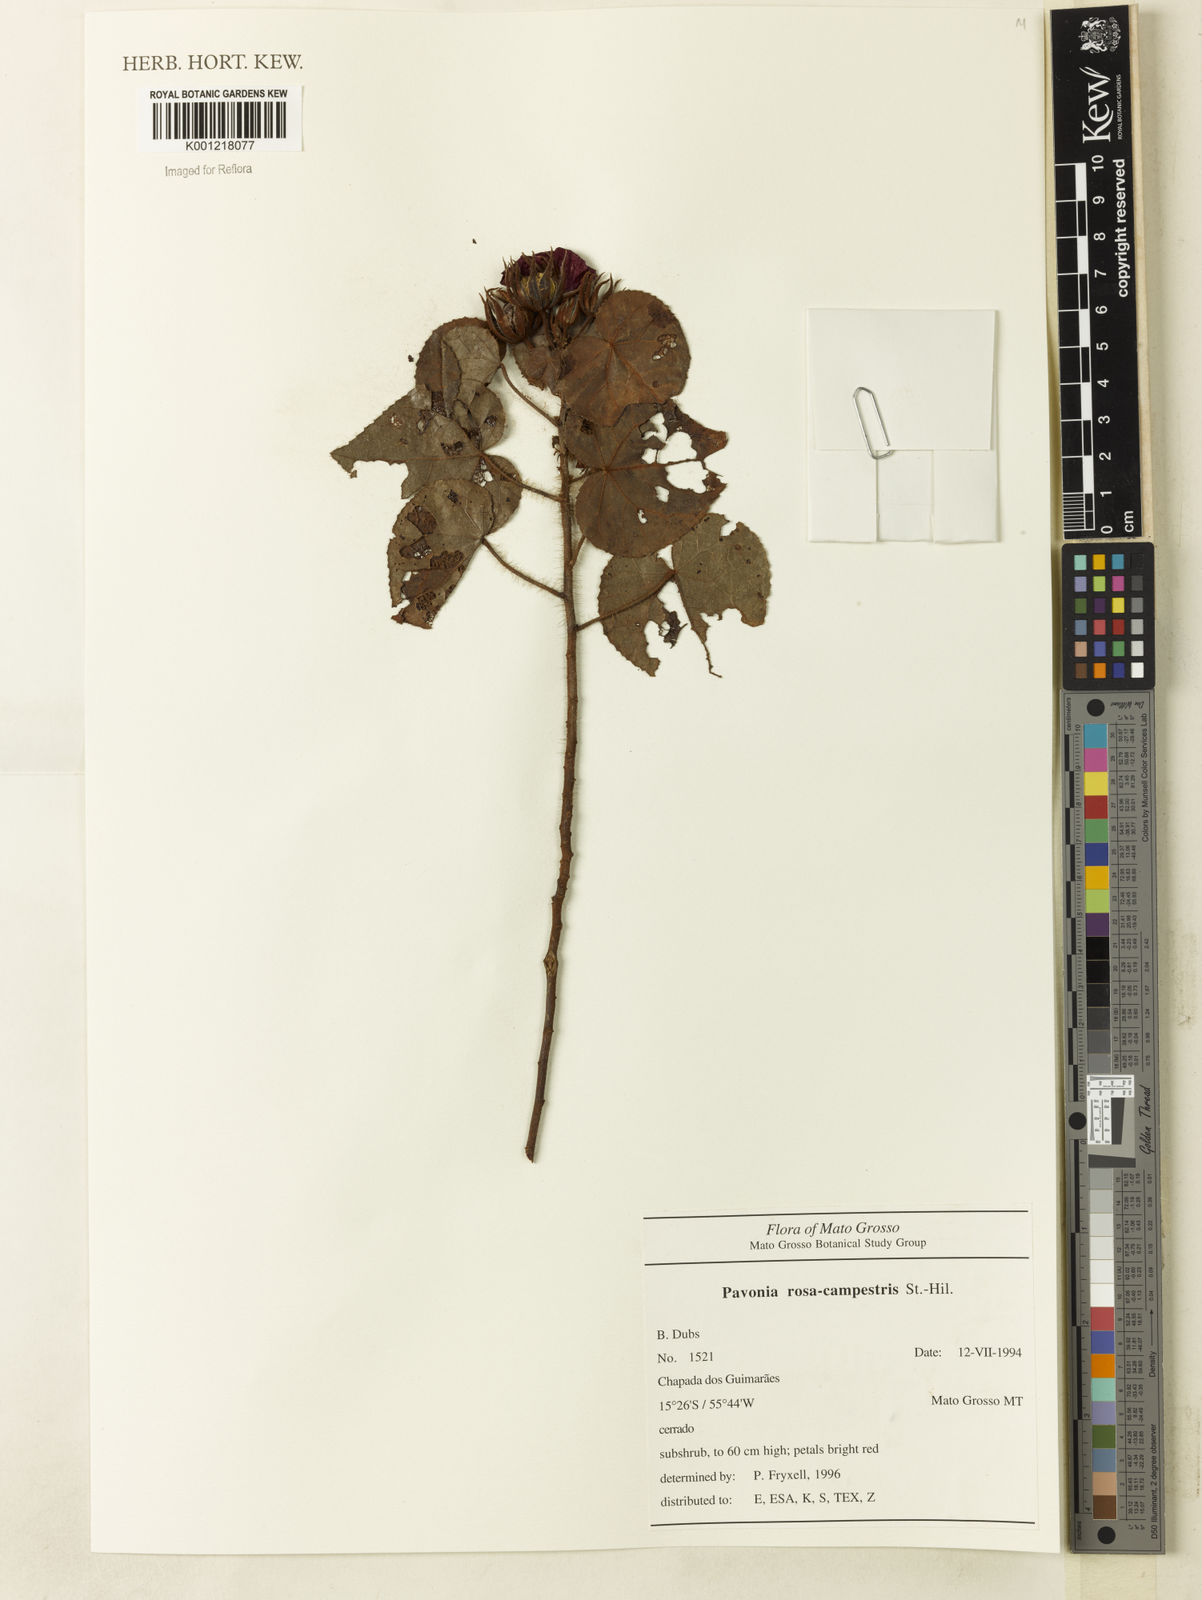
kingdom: Plantae
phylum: Tracheophyta
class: Magnoliopsida
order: Malvales
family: Malvaceae
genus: Pavonia
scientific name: Pavonia rosa-campestris
